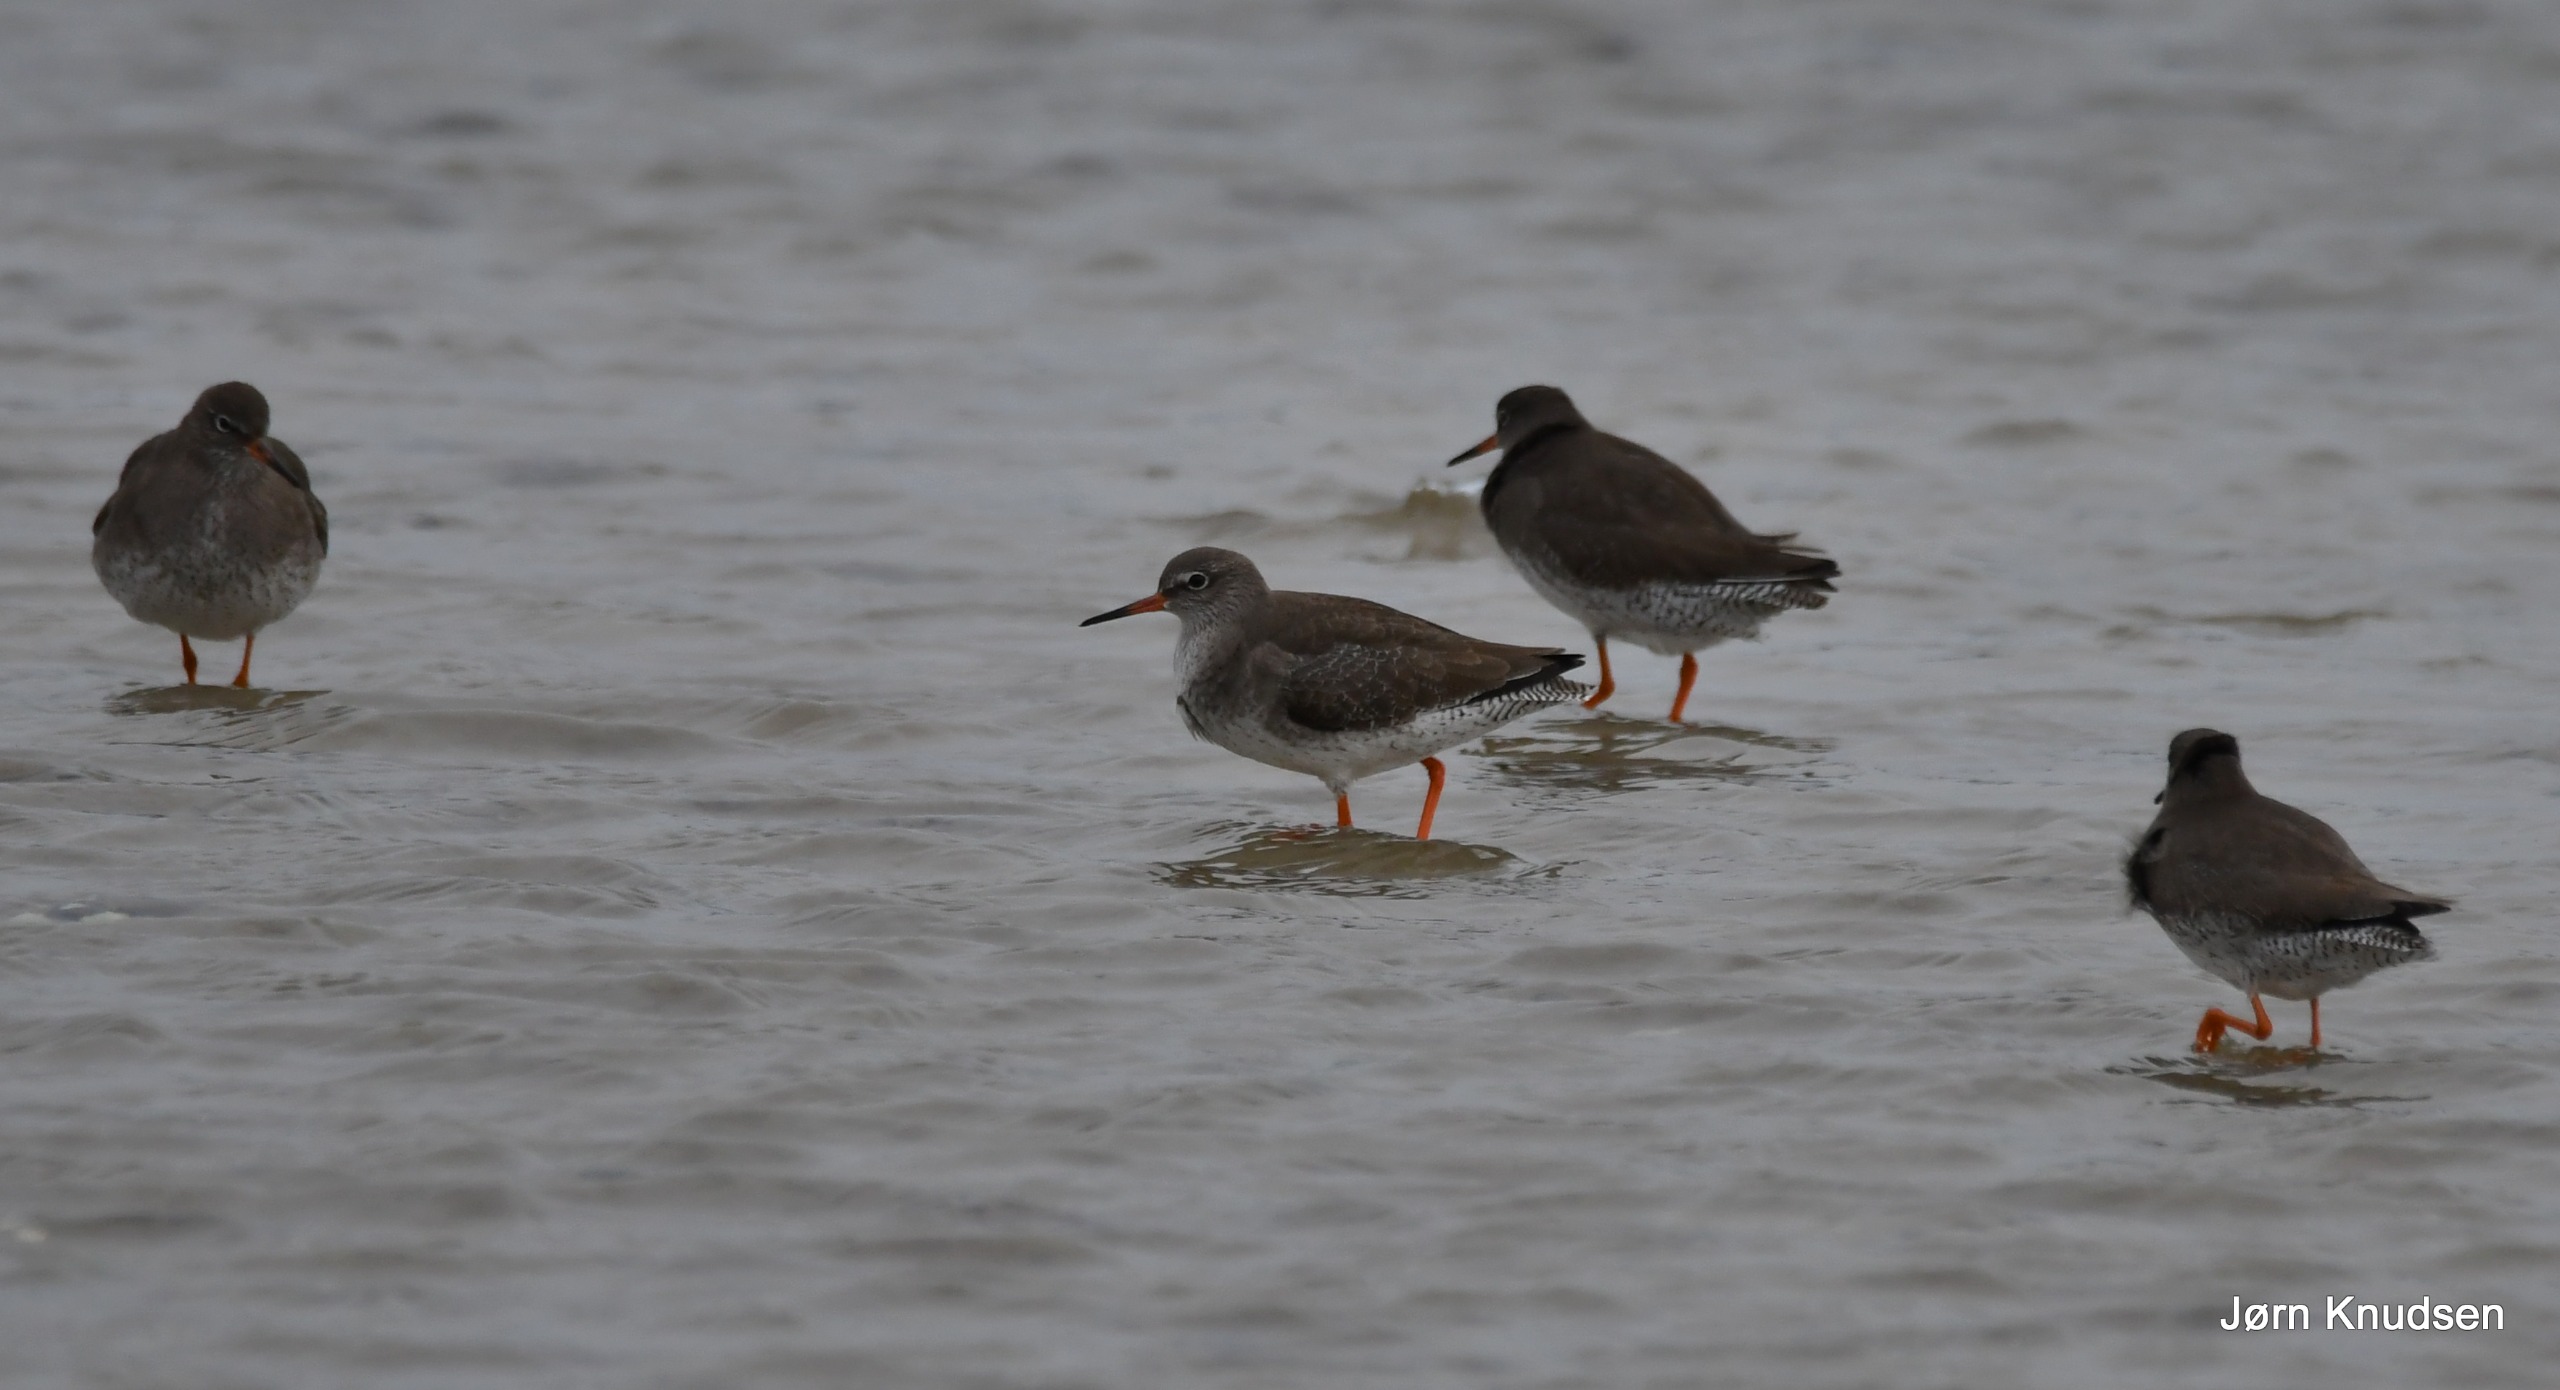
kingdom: Animalia
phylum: Chordata
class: Aves
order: Charadriiformes
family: Scolopacidae
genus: Tringa
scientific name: Tringa totanus
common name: Rødben
